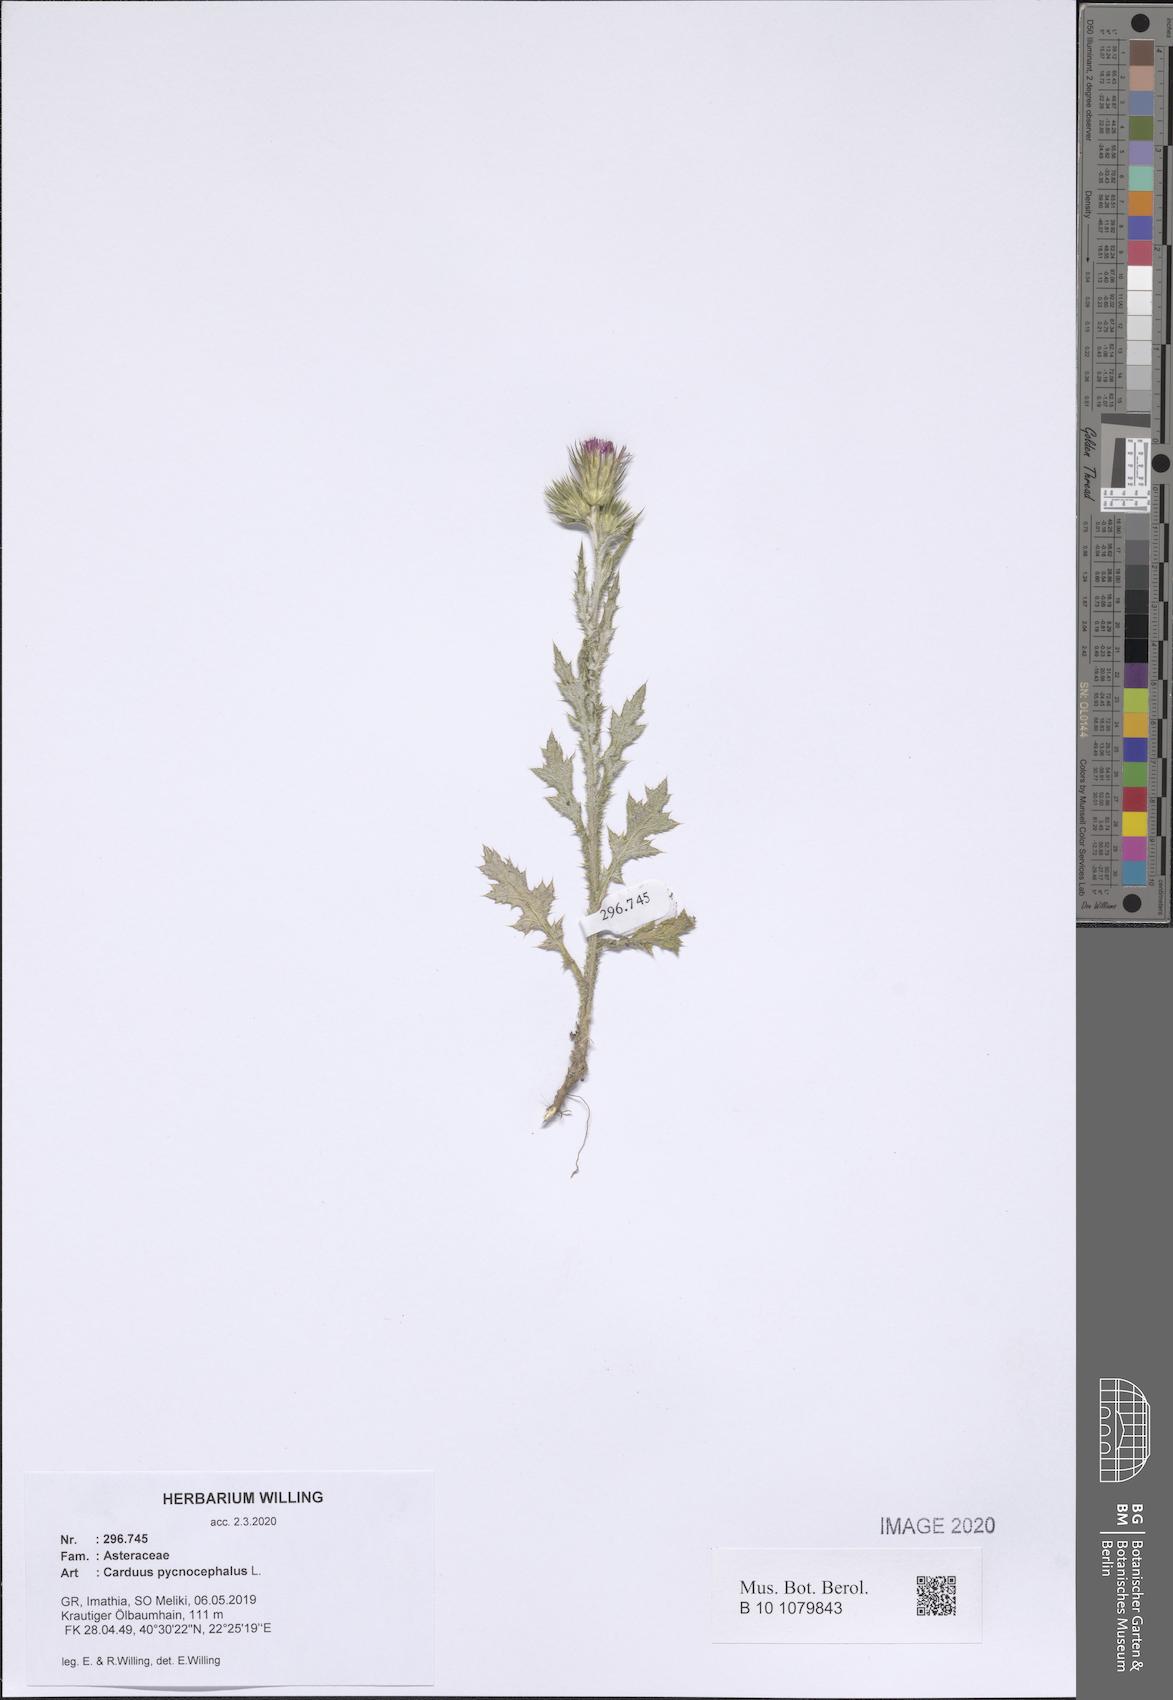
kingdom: Plantae
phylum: Tracheophyta
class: Magnoliopsida
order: Asterales
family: Asteraceae
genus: Carduus
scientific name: Carduus pycnocephalus
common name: Plymouth thistle
